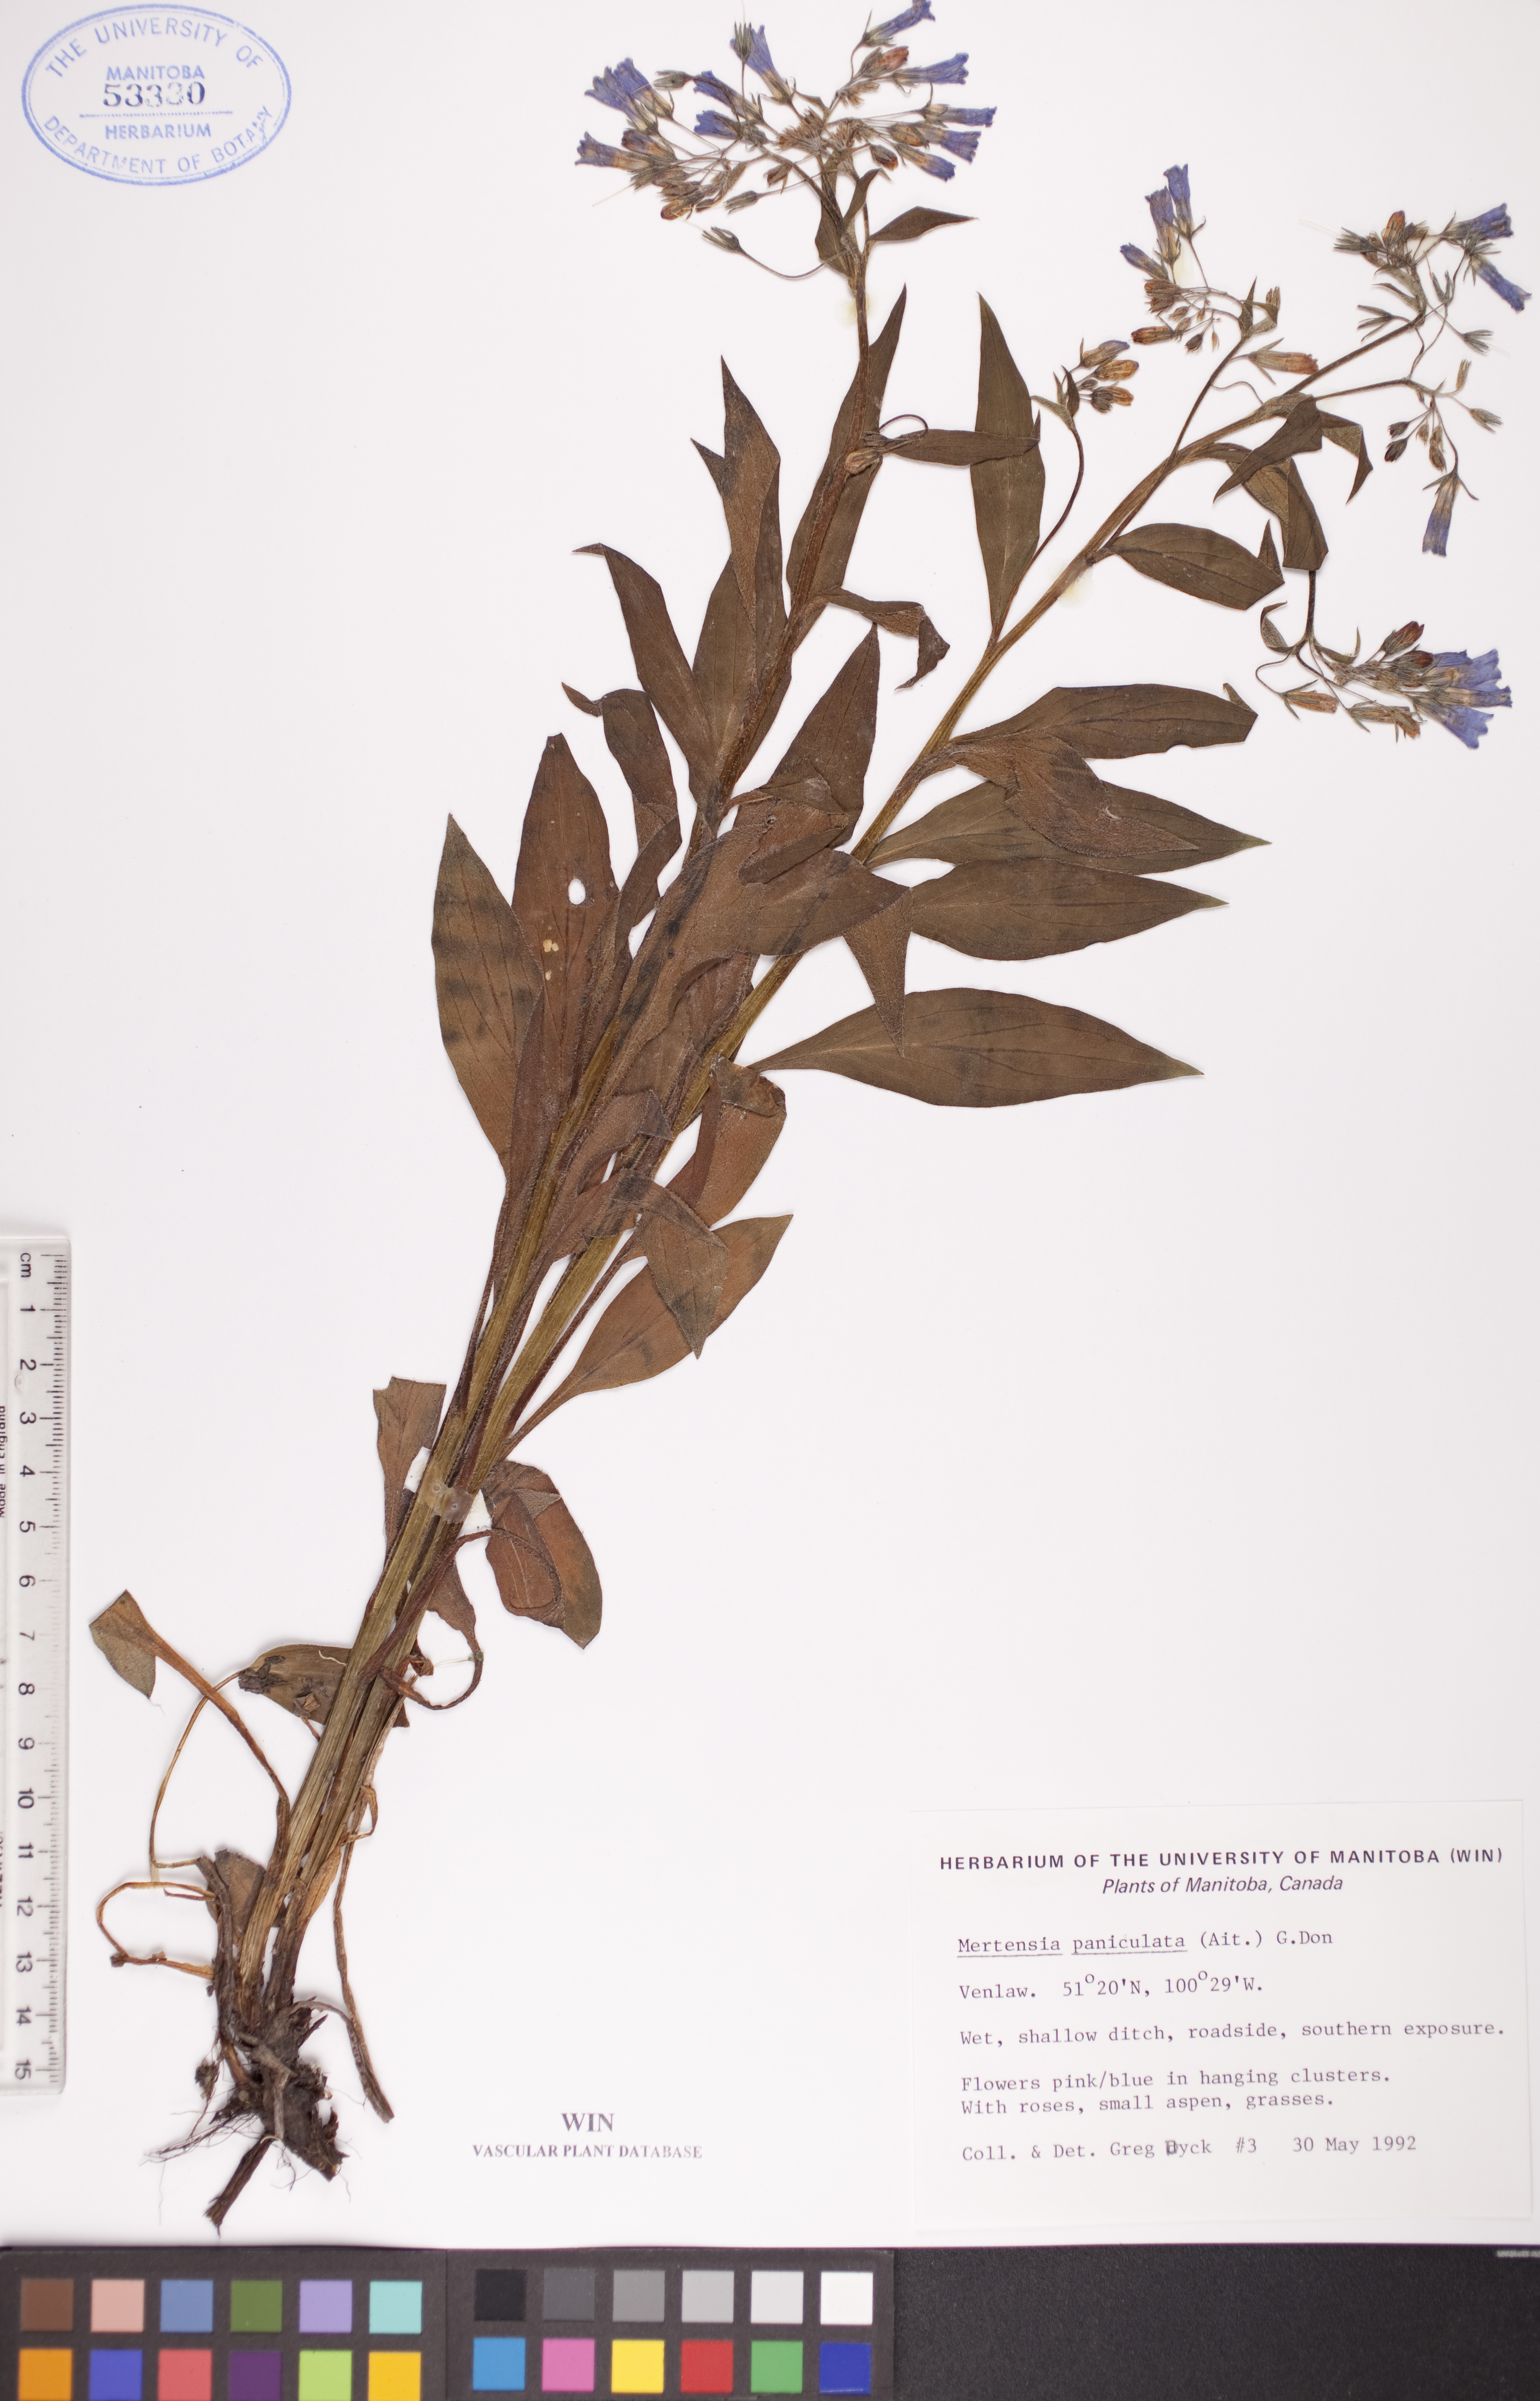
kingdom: Plantae
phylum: Tracheophyta
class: Magnoliopsida
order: Boraginales
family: Boraginaceae
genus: Mertensia
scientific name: Mertensia paniculata
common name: Panicled bluebells
